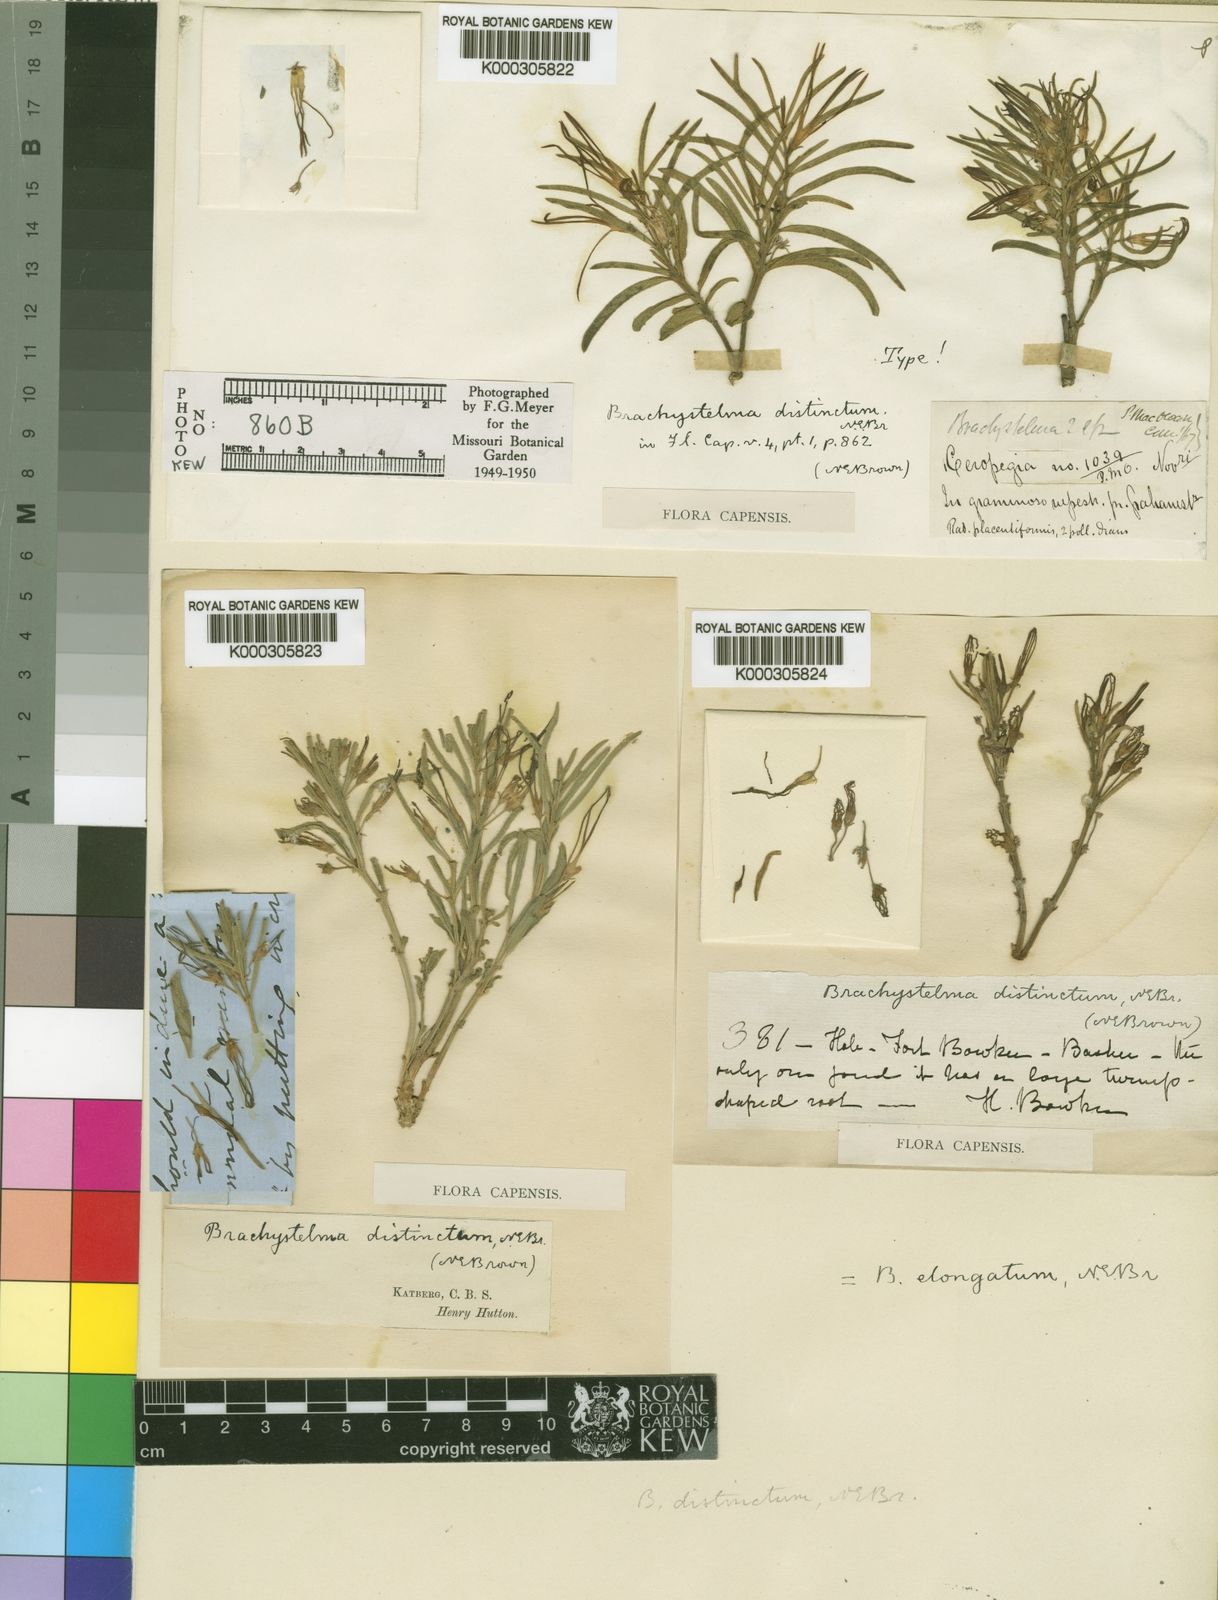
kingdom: Plantae
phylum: Tracheophyta
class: Magnoliopsida
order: Gentianales
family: Apocynaceae
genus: Ceropegia
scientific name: Ceropegia elongata
